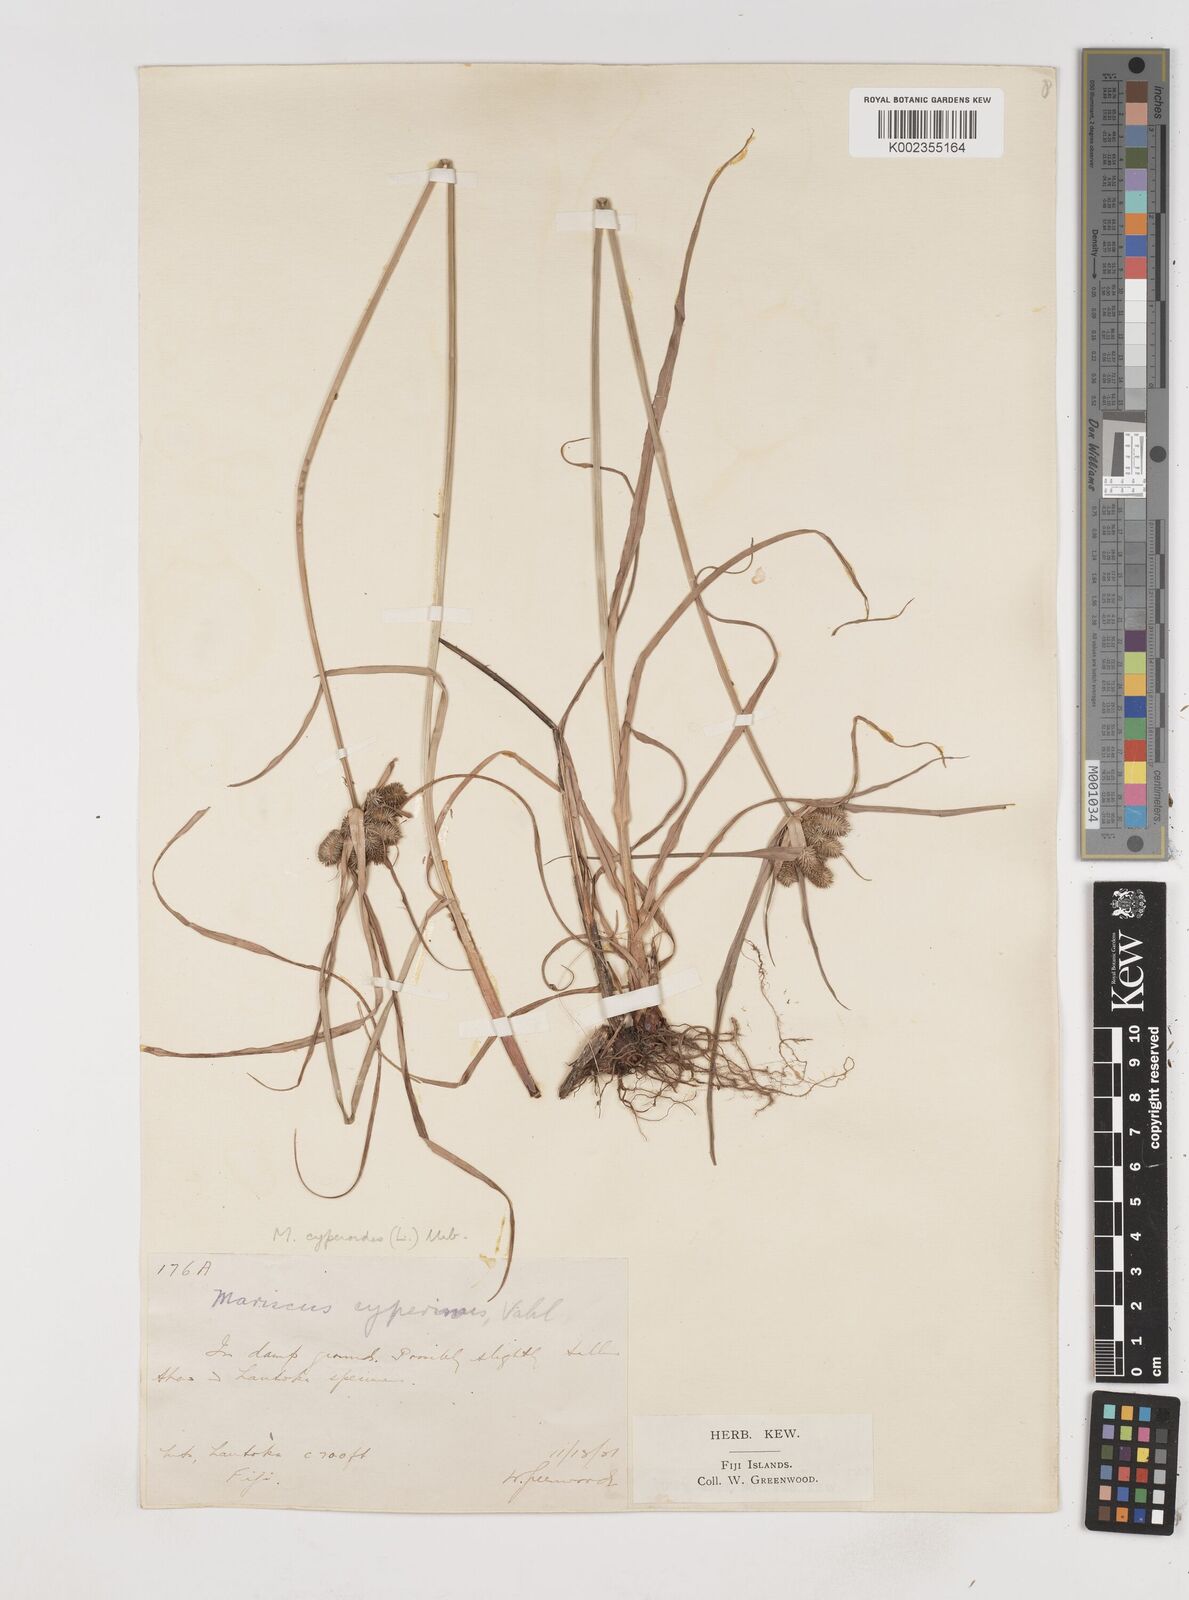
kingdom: Plantae
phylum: Tracheophyta
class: Liliopsida
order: Poales
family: Cyperaceae
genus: Cyperus
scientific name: Cyperus cyperoides
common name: Pacific island flat sedge
